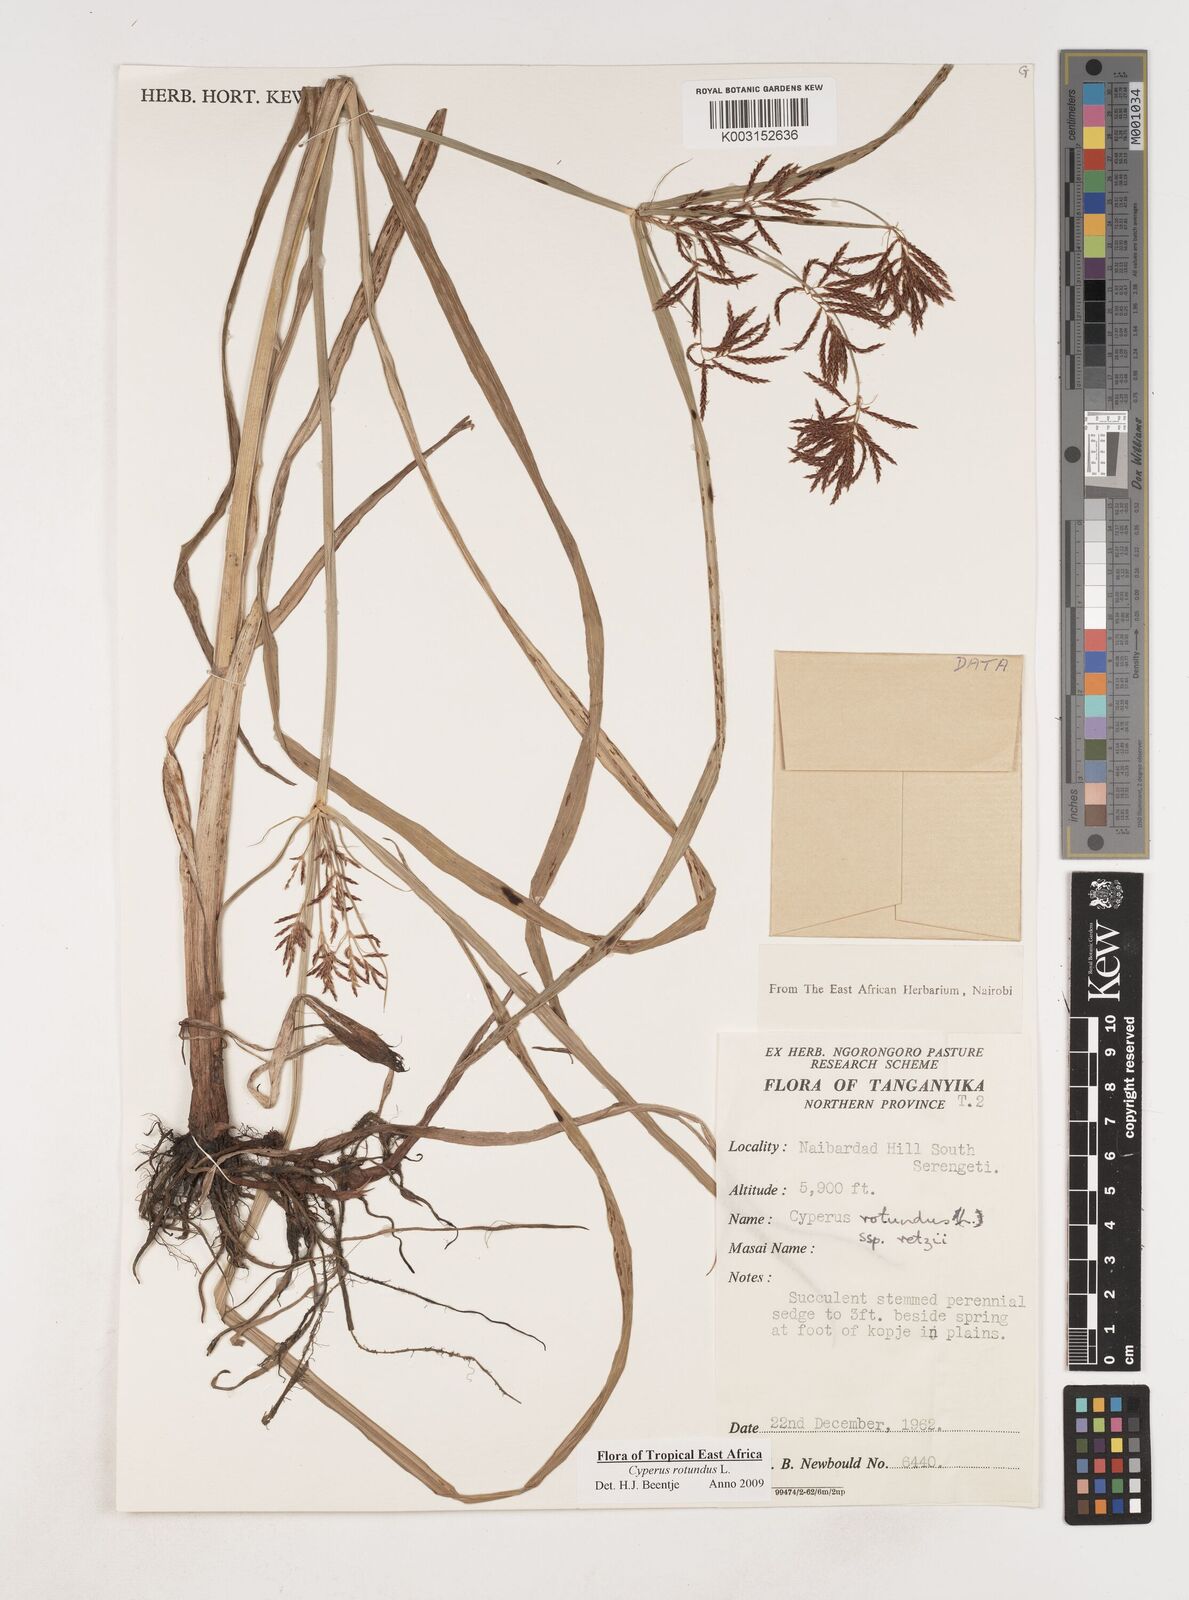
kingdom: Plantae
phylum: Tracheophyta
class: Liliopsida
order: Poales
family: Cyperaceae
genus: Cyperus
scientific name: Cyperus rotundus
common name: Nutgrass
